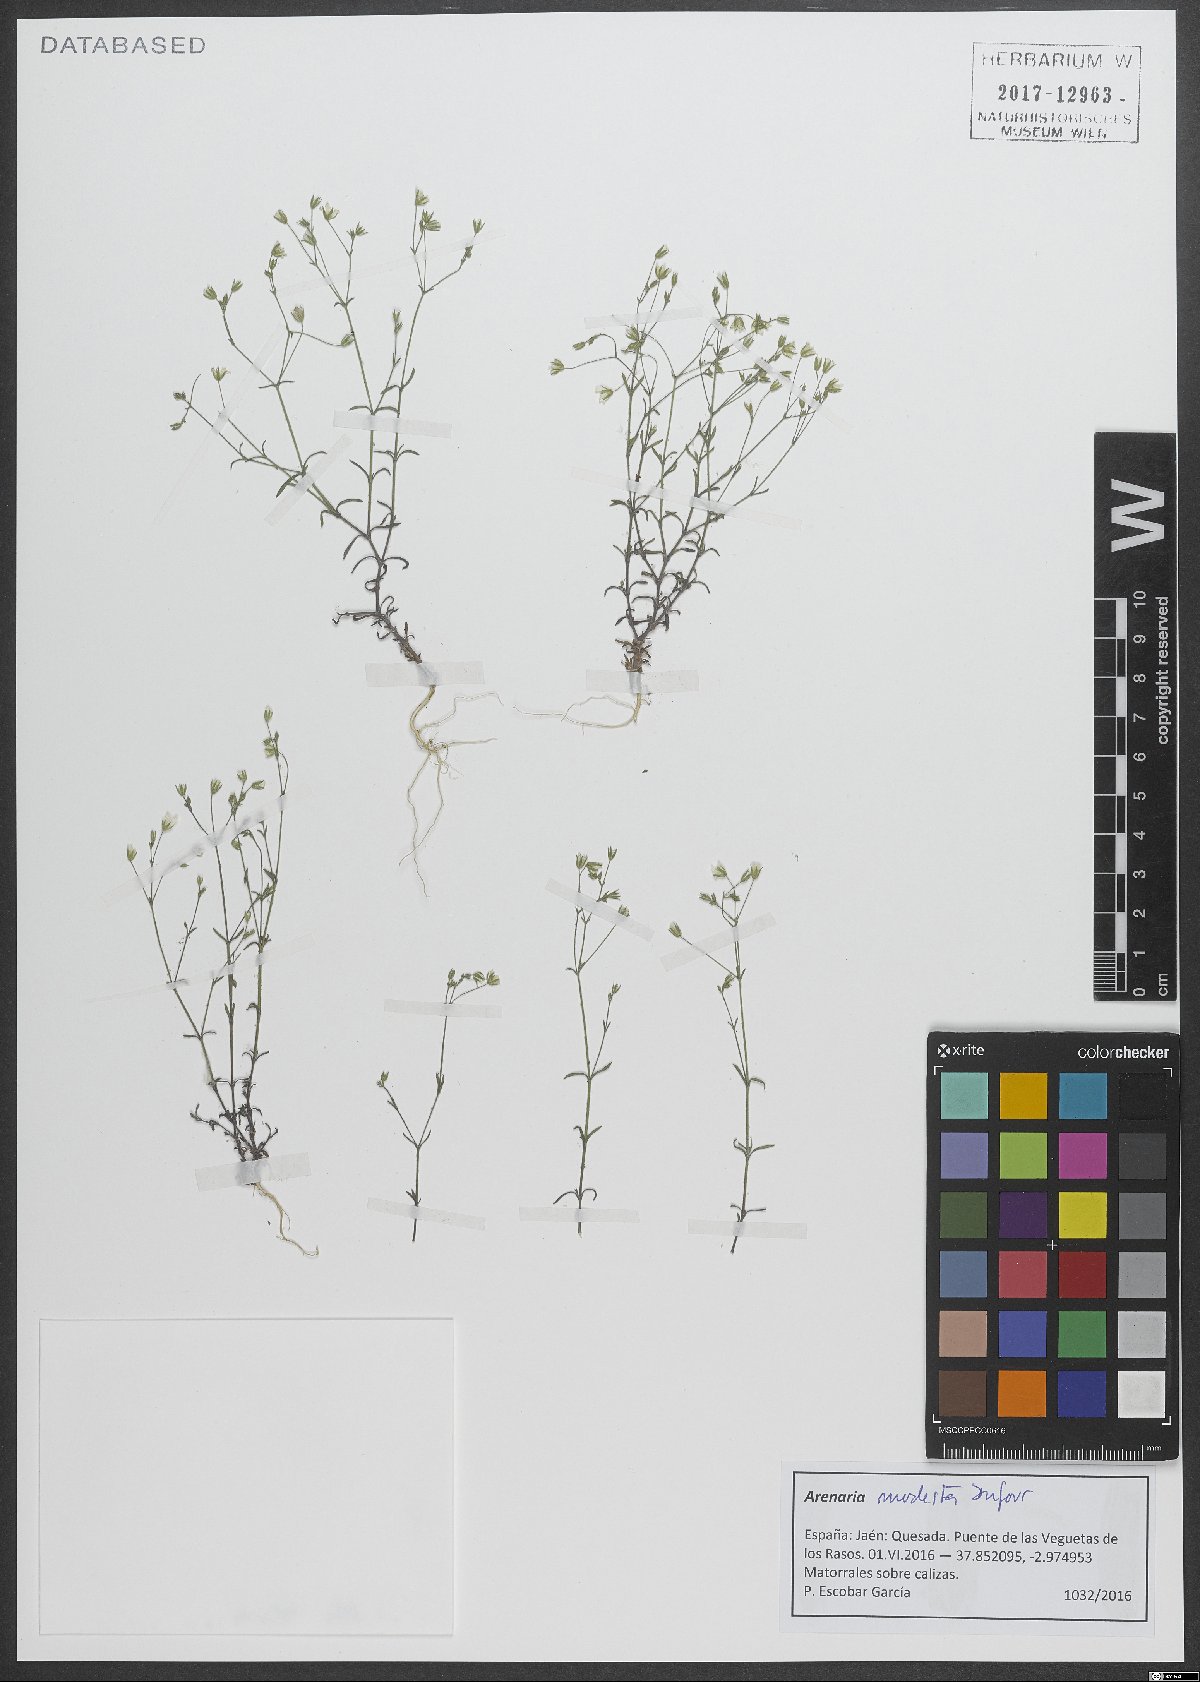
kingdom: Plantae
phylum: Tracheophyta
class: Magnoliopsida
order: Caryophyllales
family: Caryophyllaceae
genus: Arenaria
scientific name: Arenaria modesta
